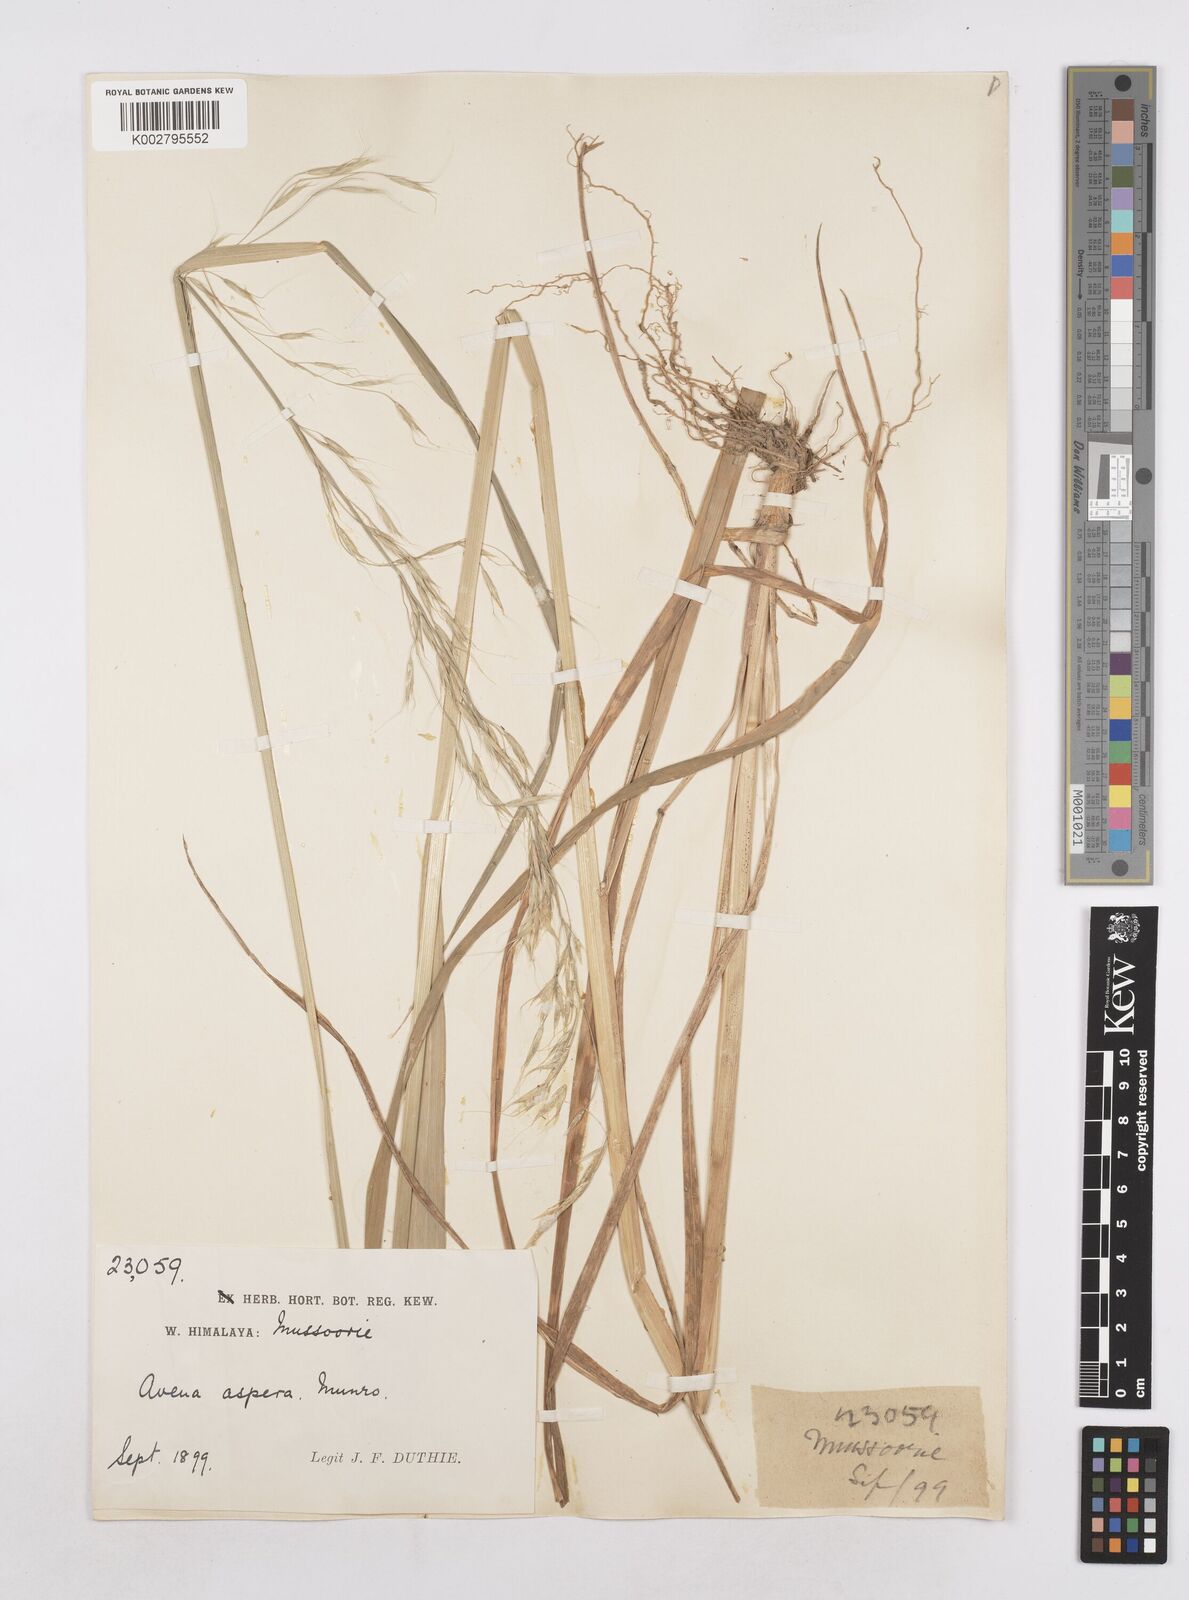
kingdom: Plantae
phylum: Tracheophyta
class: Liliopsida
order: Poales
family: Poaceae
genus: Trisetopsis
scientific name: Trisetopsis junghuhnii
